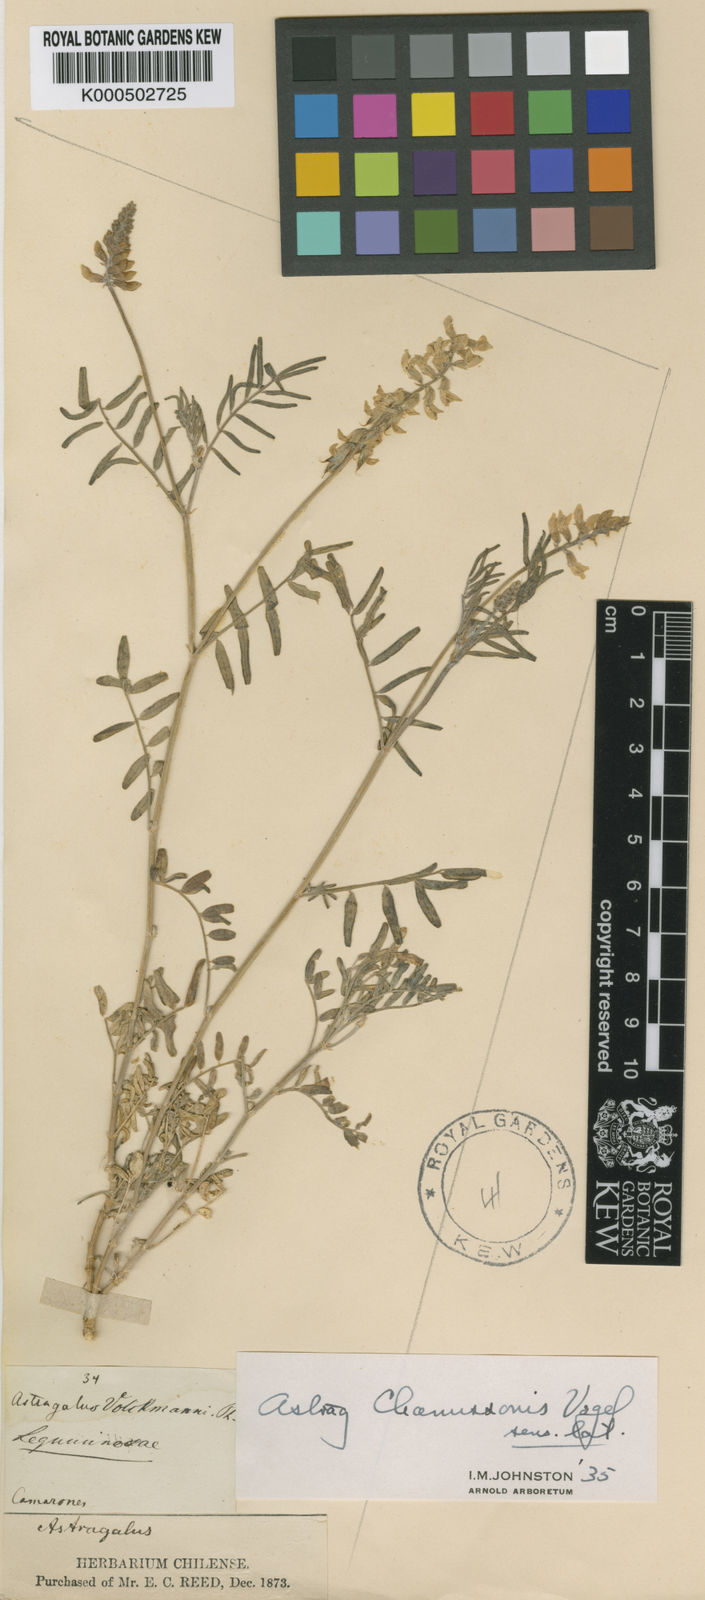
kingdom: Plantae
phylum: Tracheophyta
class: Magnoliopsida
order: Fabales
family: Fabaceae
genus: Astragalus
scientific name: Astragalus chamissonis
